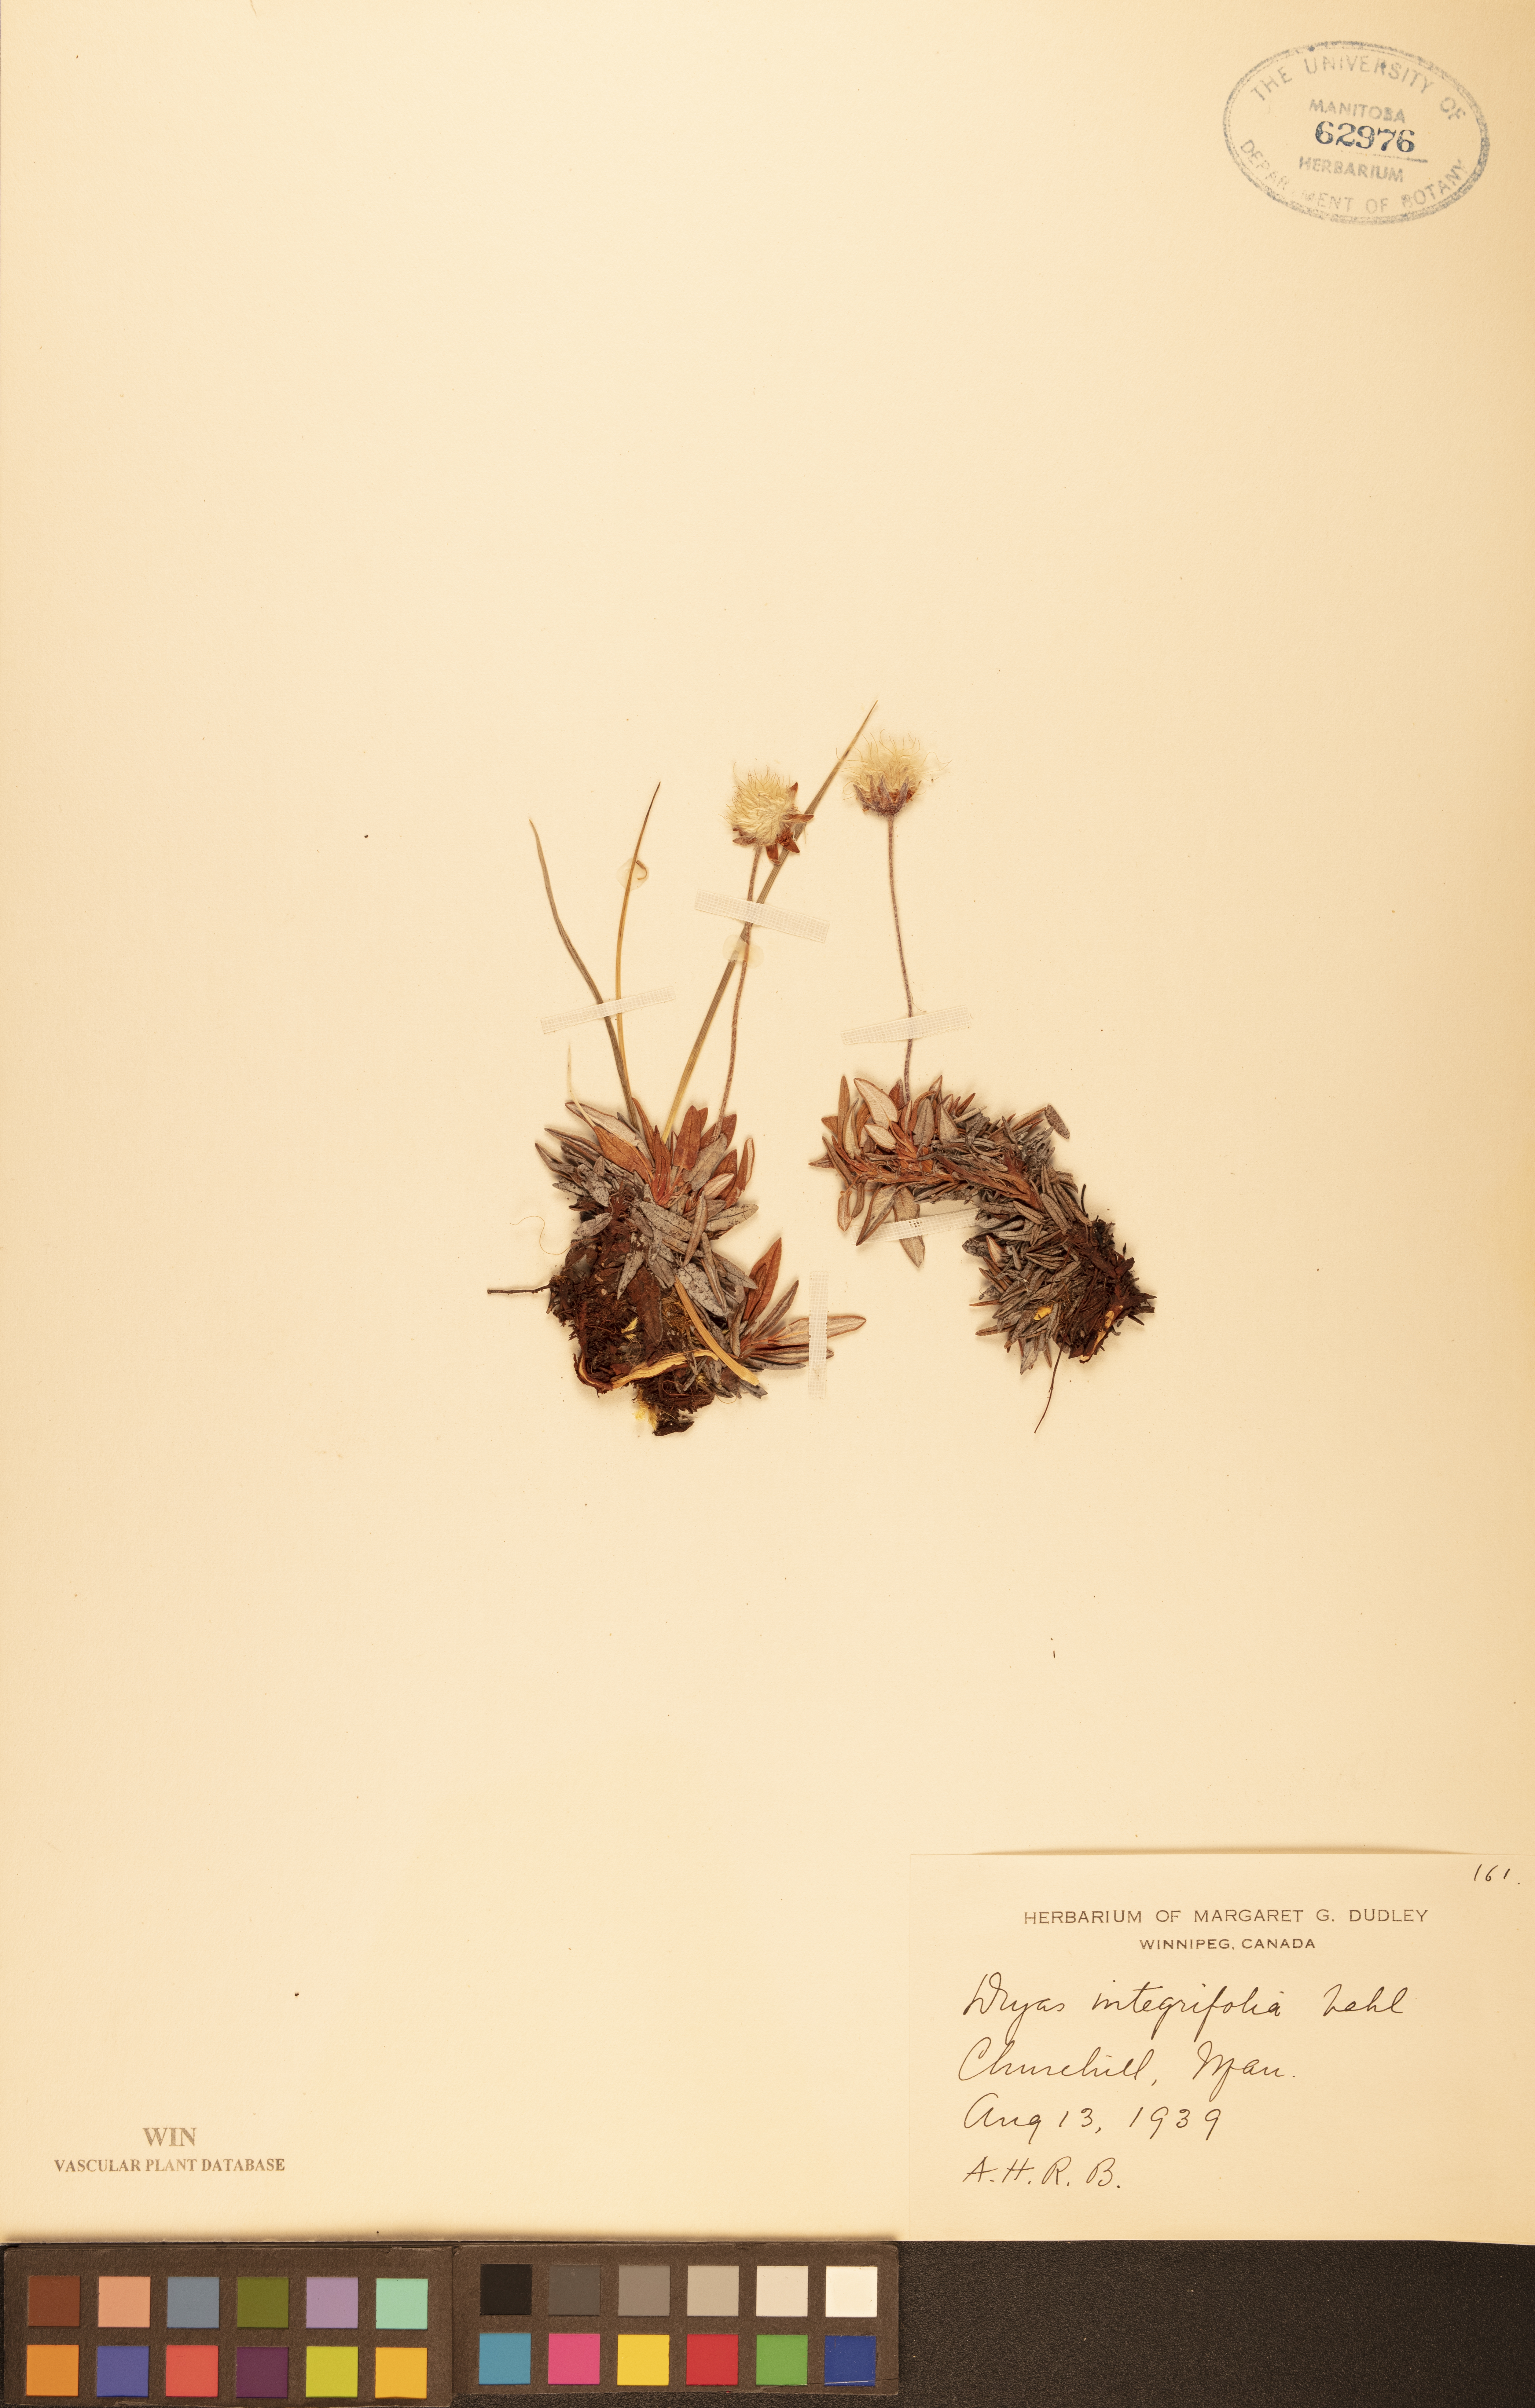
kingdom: Plantae
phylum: Tracheophyta
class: Magnoliopsida
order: Rosales
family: Rosaceae
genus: Dryas
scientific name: Dryas integrifolia
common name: Entire-leaved mountain avens
